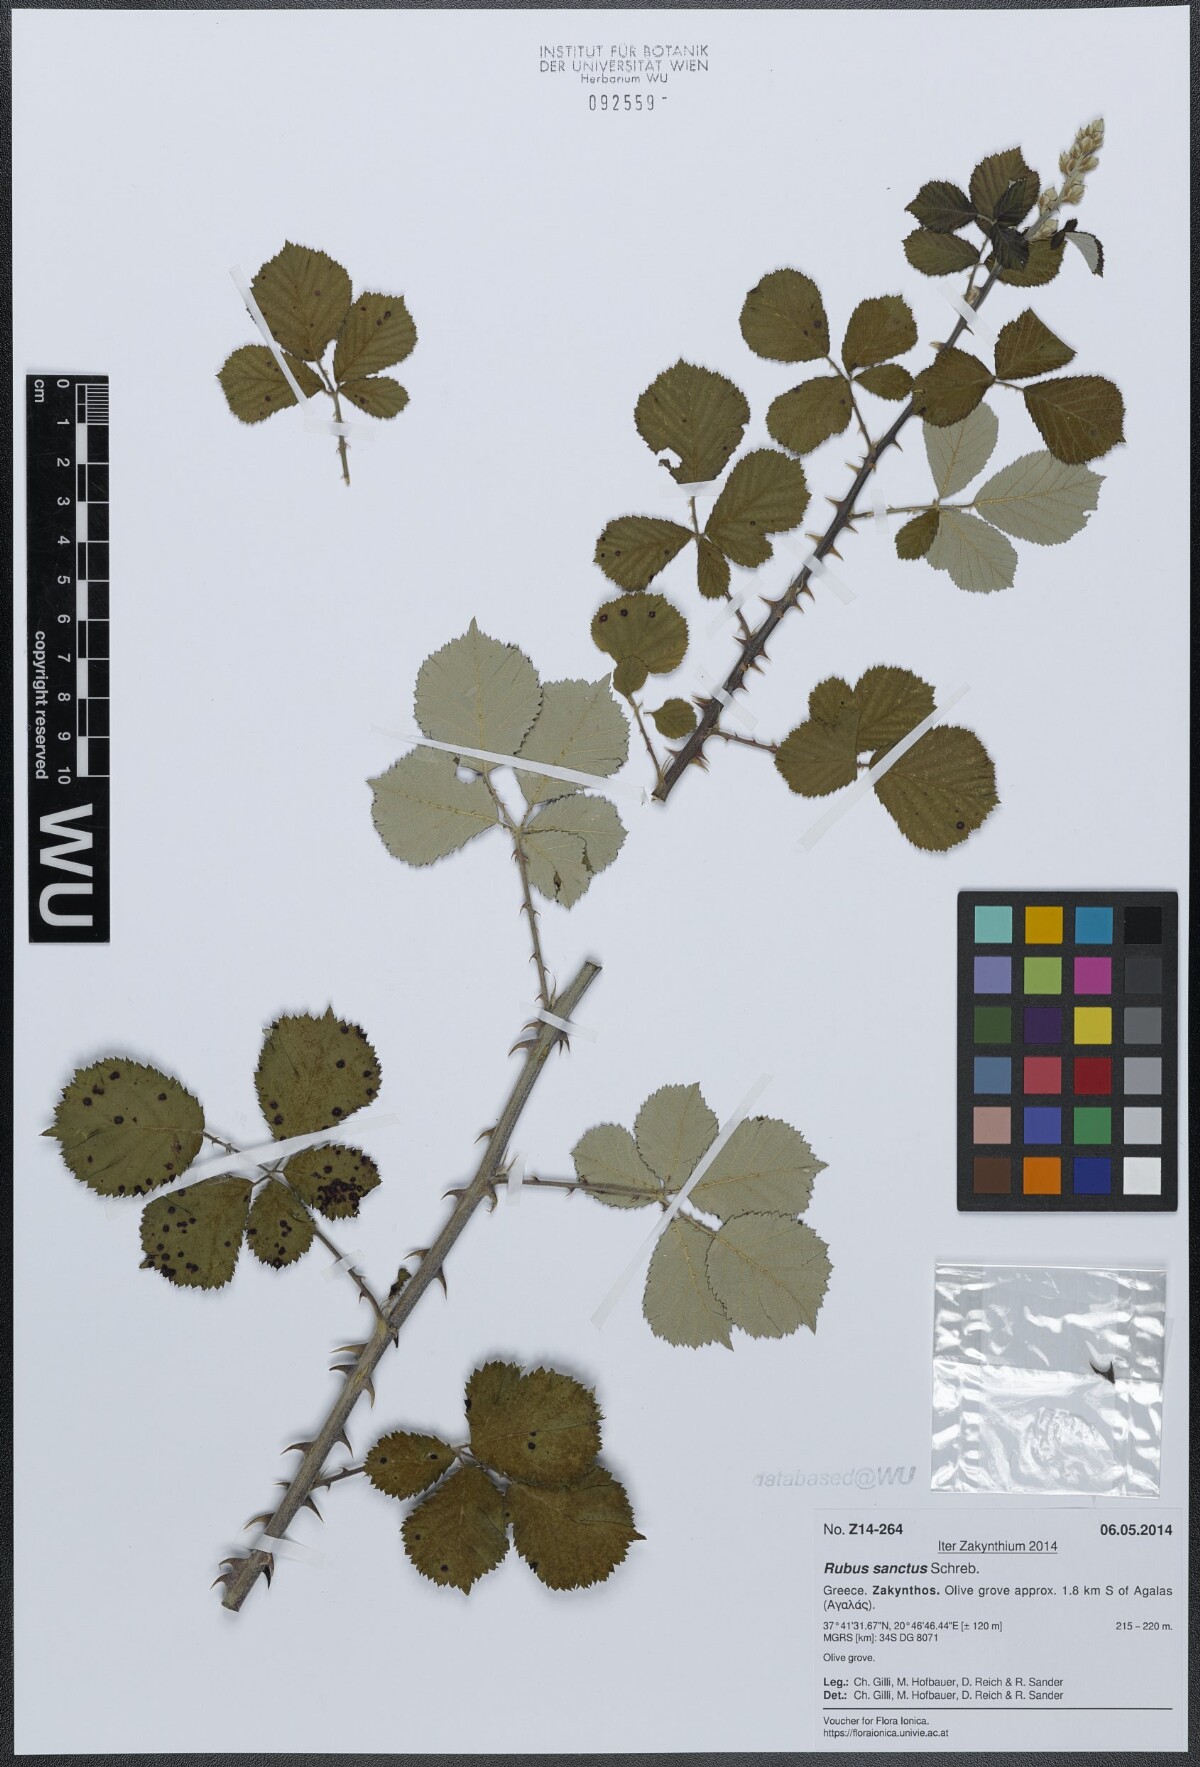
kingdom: Plantae
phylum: Tracheophyta
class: Magnoliopsida
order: Rosales
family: Rosaceae
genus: Rubus
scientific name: Rubus sanctus
